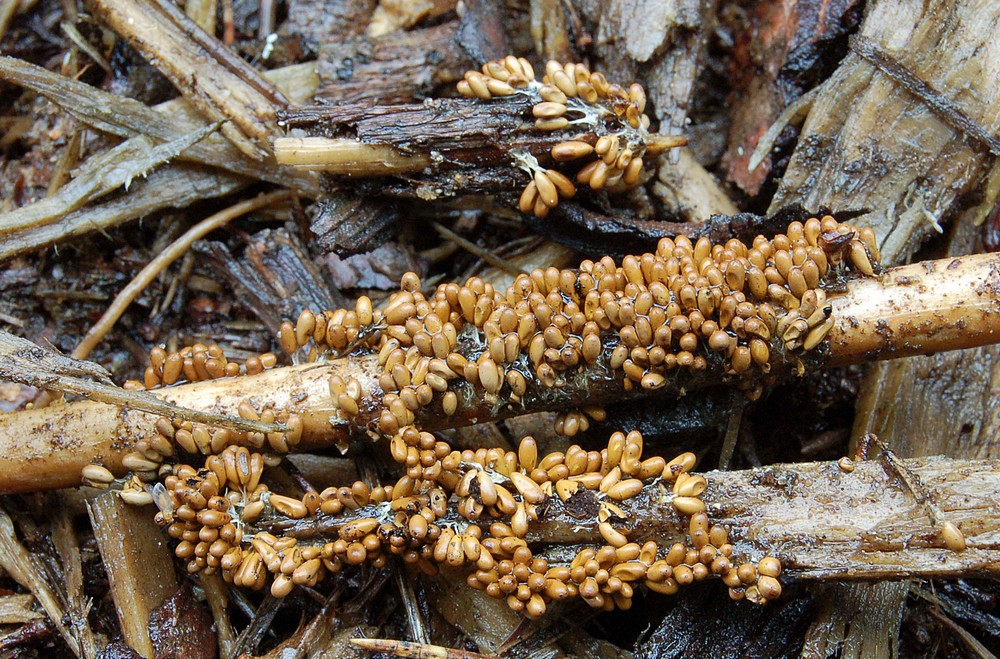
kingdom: Protozoa
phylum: Mycetozoa
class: Myxomycetes
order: Physarales
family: Physaraceae
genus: Leocarpus
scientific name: Leocarpus fragilis
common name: poleret glatfrø
